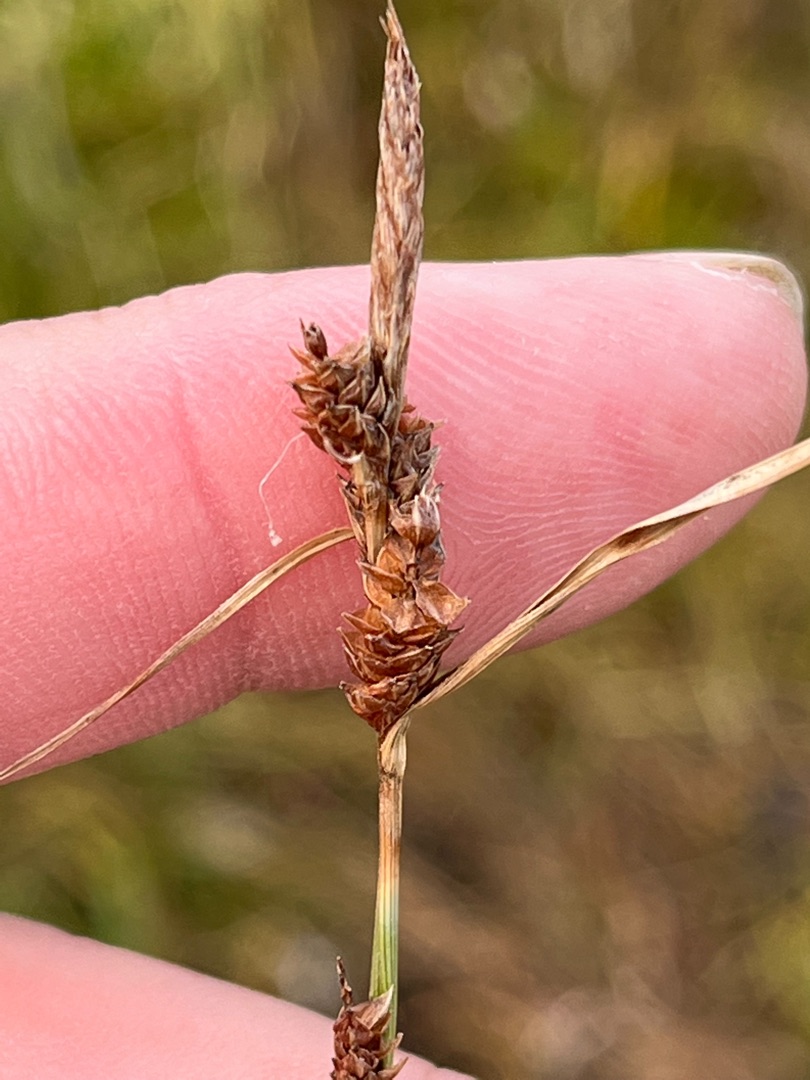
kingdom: Plantae
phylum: Tracheophyta
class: Liliopsida
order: Poales
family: Cyperaceae
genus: Carex
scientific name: Carex extensa
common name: Udspilet star
